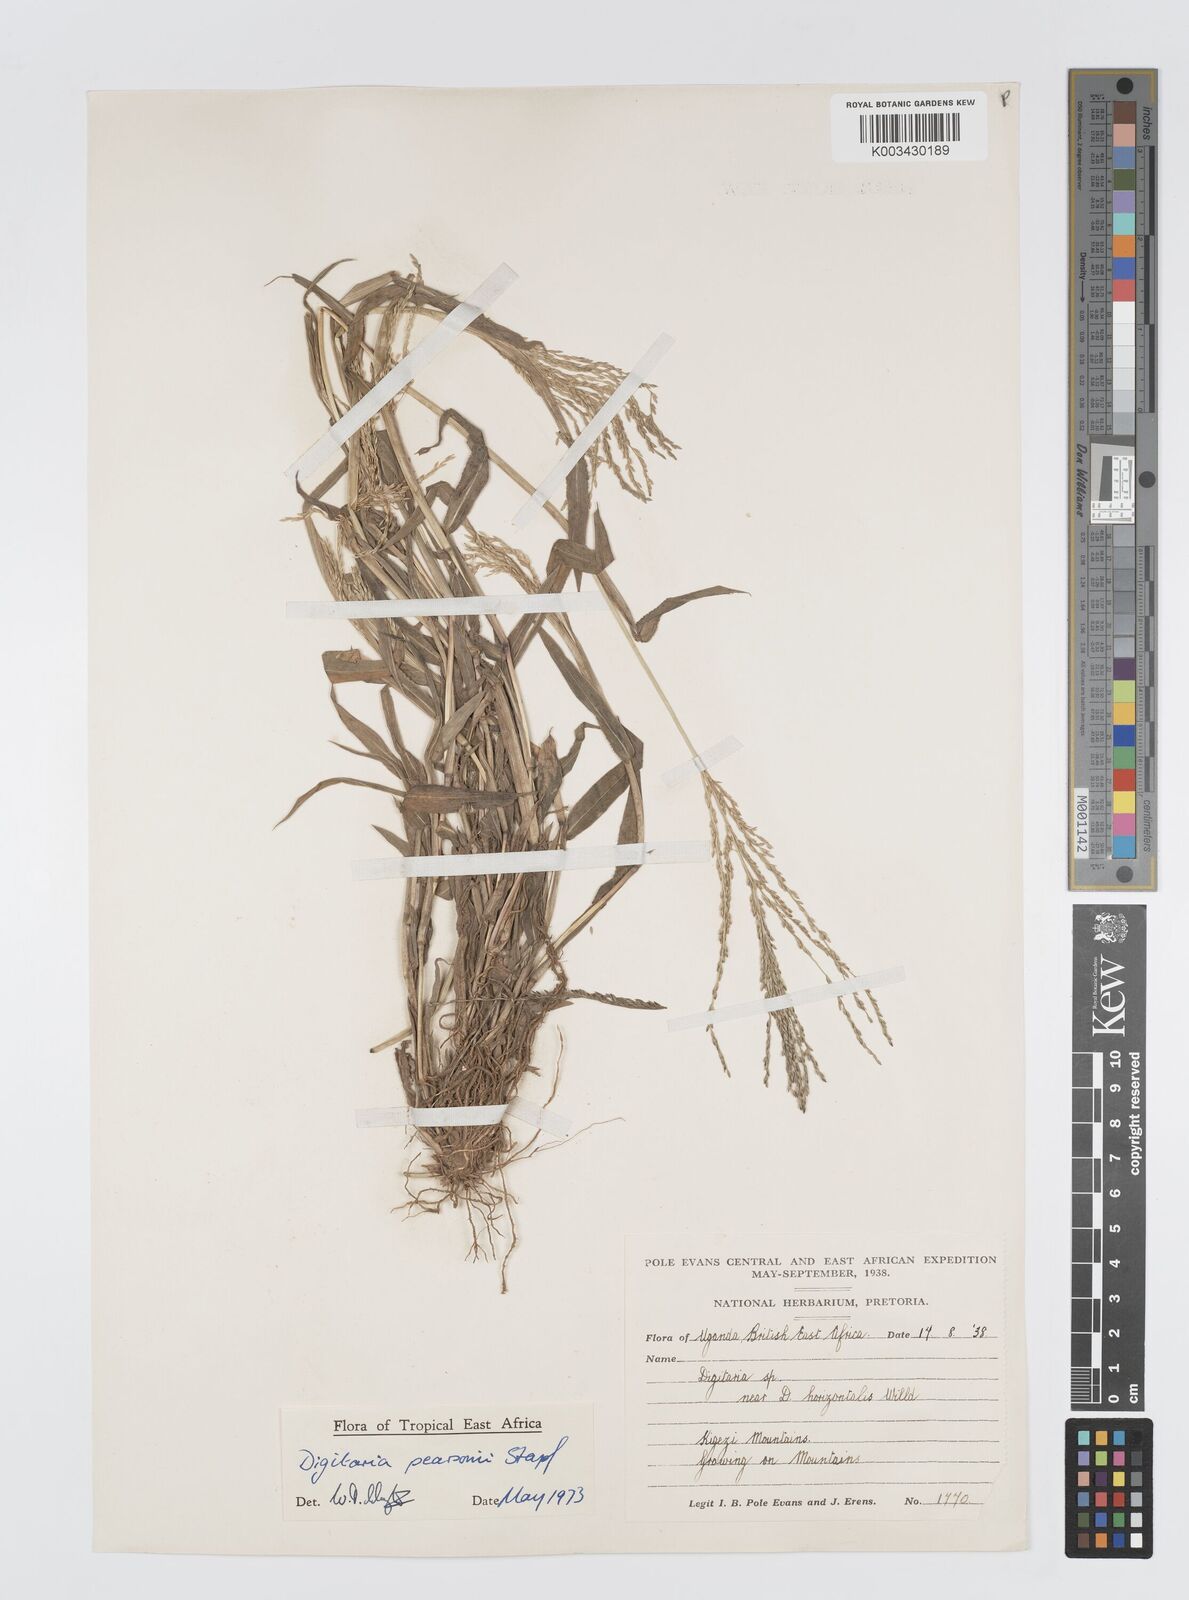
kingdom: Plantae
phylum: Tracheophyta
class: Liliopsida
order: Poales
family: Poaceae
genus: Digitaria
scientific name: Digitaria pearsonii
